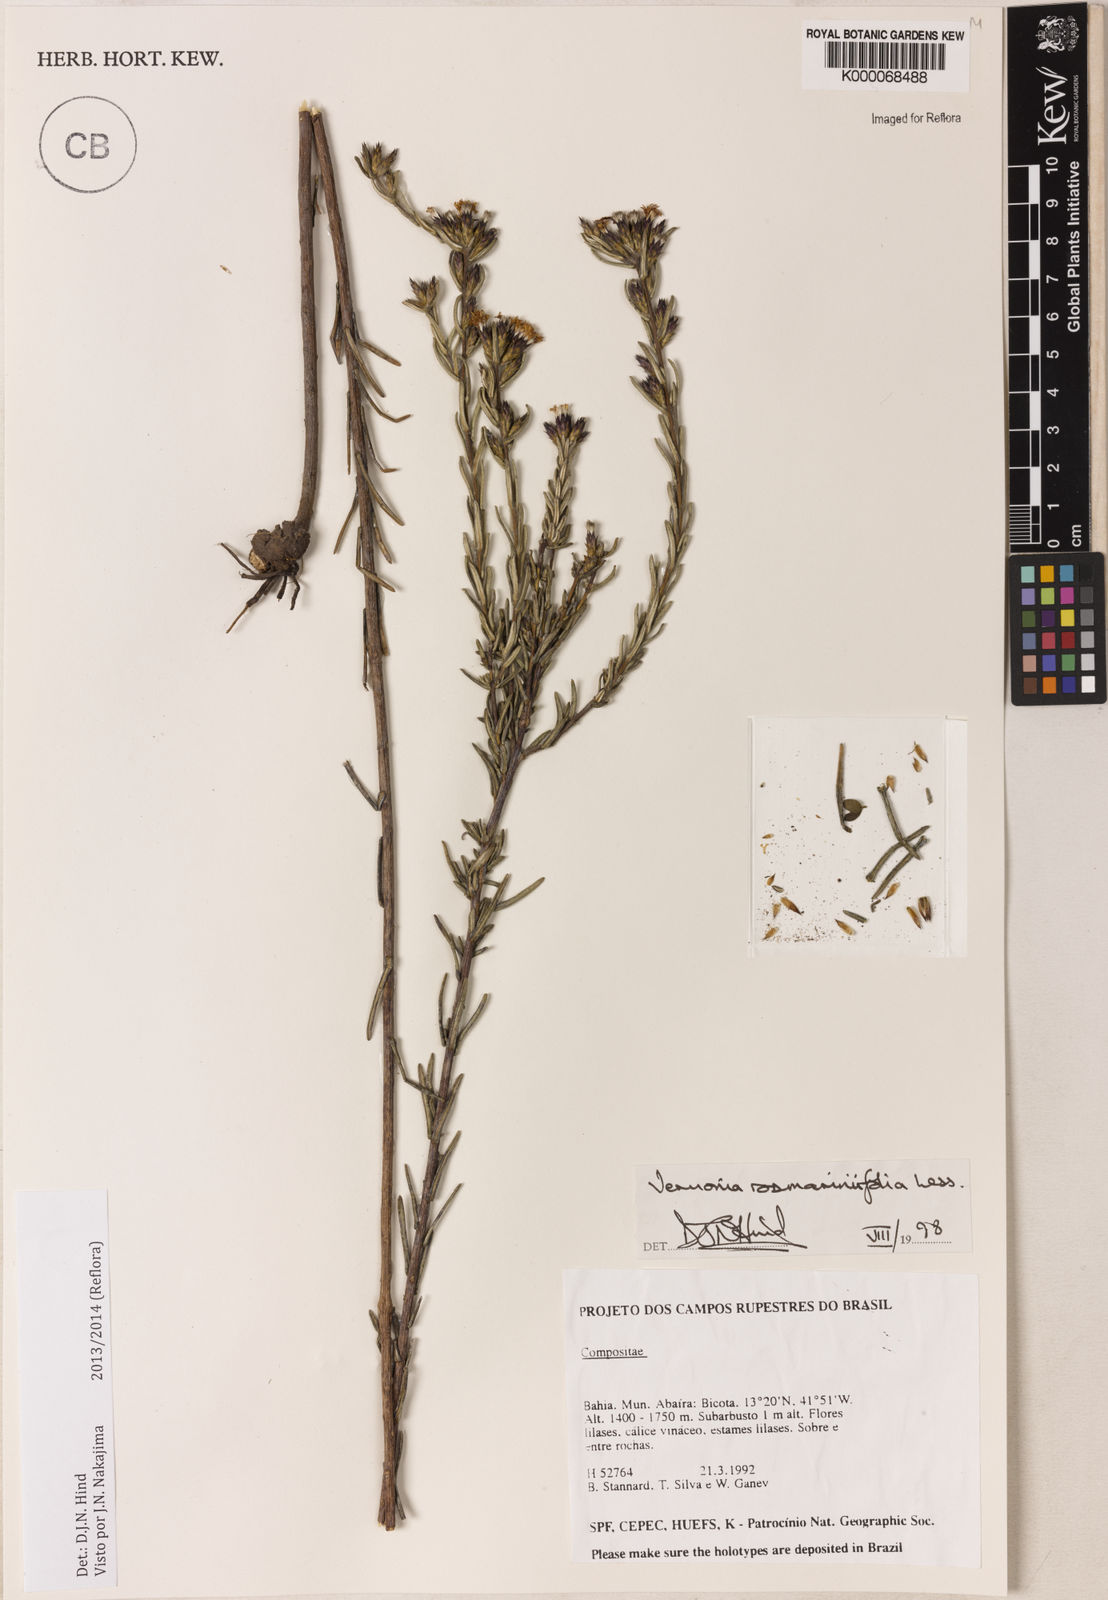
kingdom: Plantae
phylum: Tracheophyta
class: Magnoliopsida
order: Asterales
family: Asteraceae
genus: Lessingianthus
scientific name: Lessingianthus rosmarinifolius
